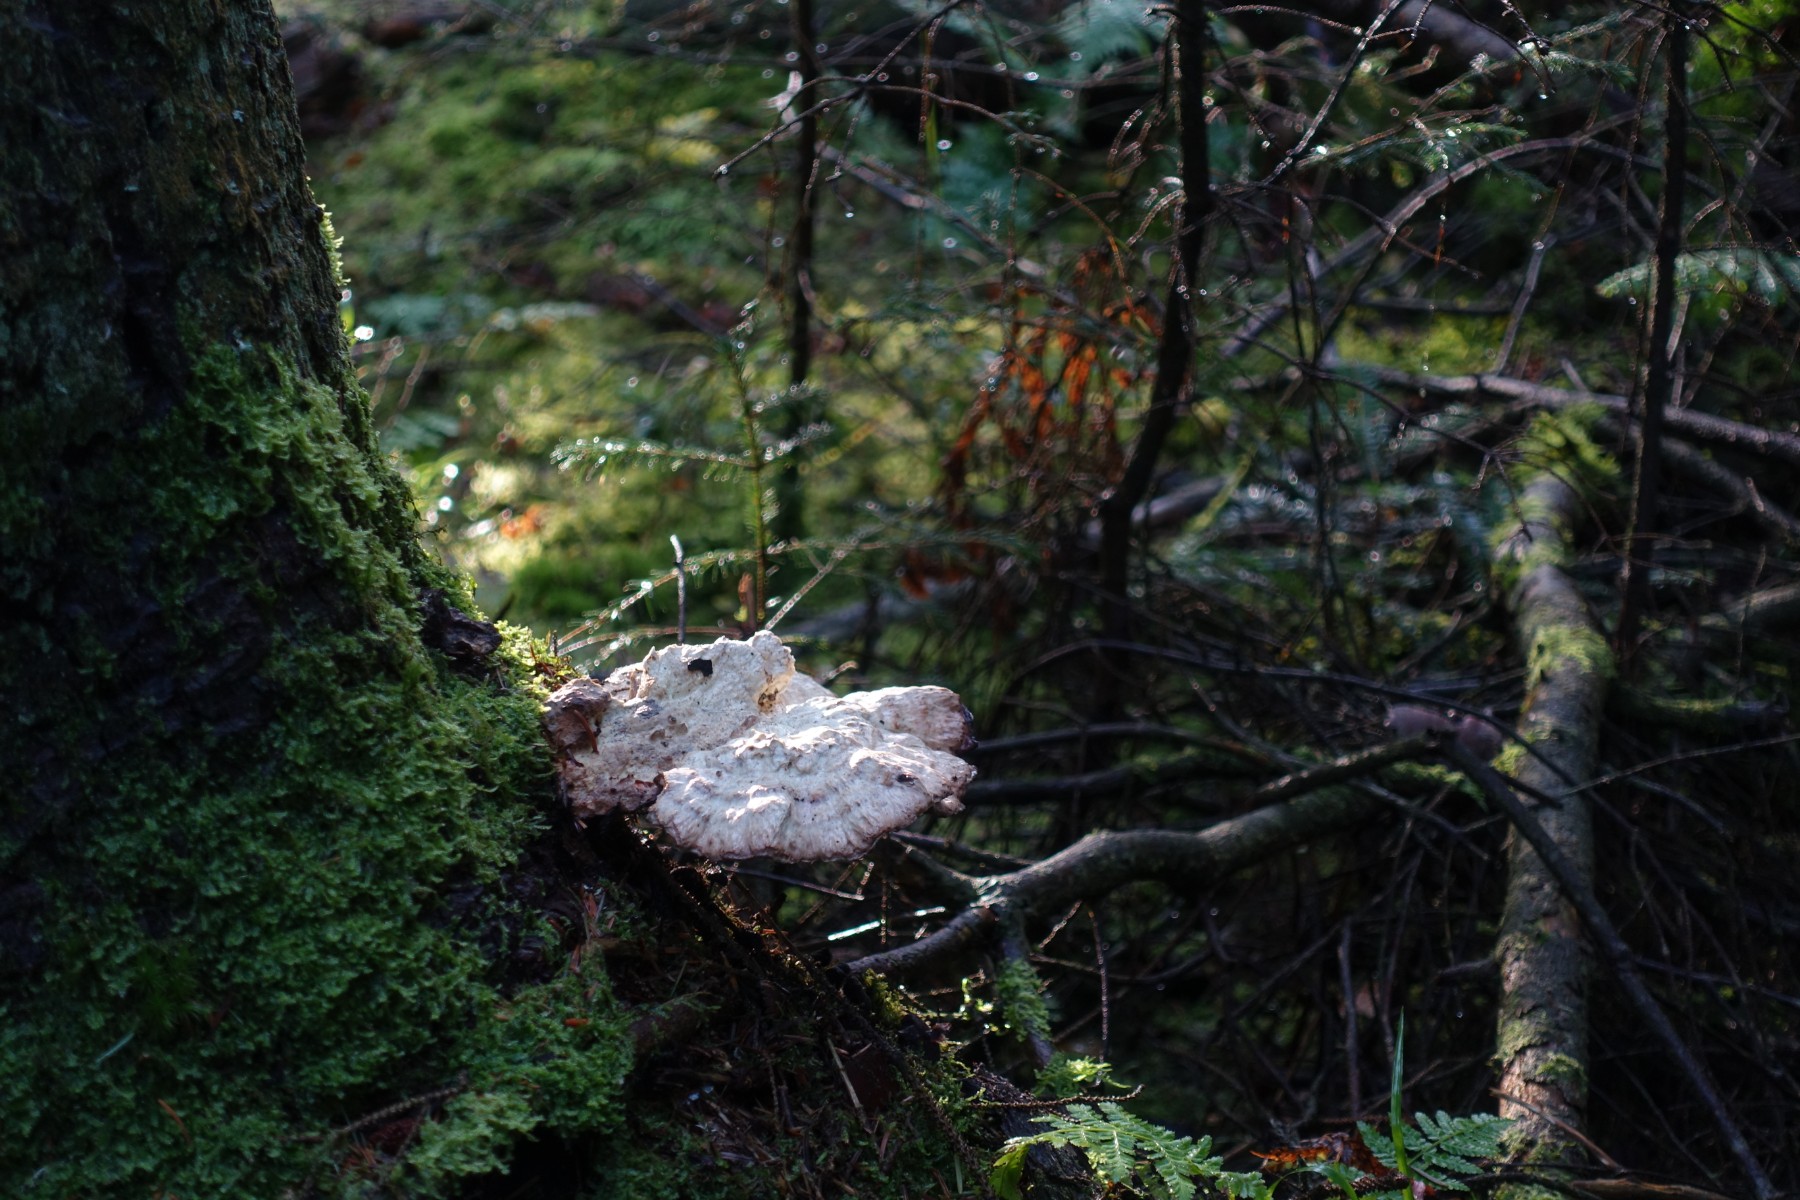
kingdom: Fungi
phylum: Basidiomycota
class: Agaricomycetes
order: Polyporales
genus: Calcipostia
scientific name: Calcipostia guttulata
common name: dråbe-kødporesvamp
